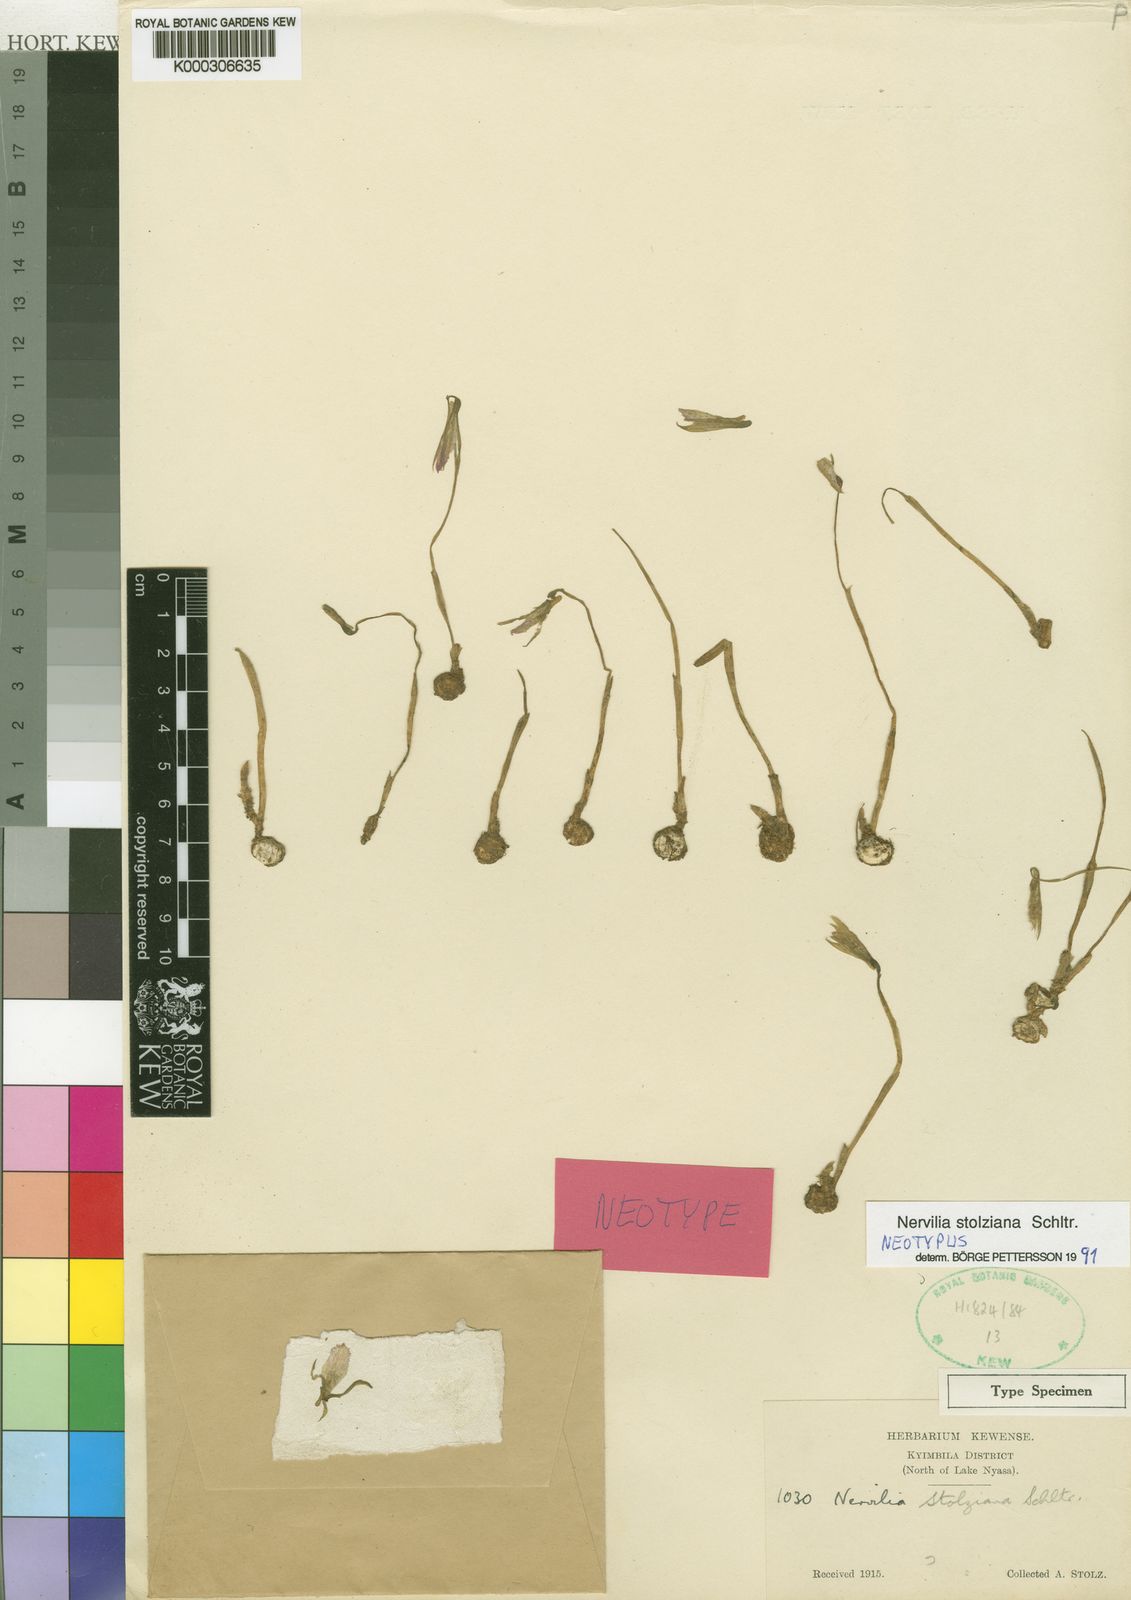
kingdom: Plantae
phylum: Tracheophyta
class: Liliopsida
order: Asparagales
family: Orchidaceae
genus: Nervilia
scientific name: Nervilia stolziana
